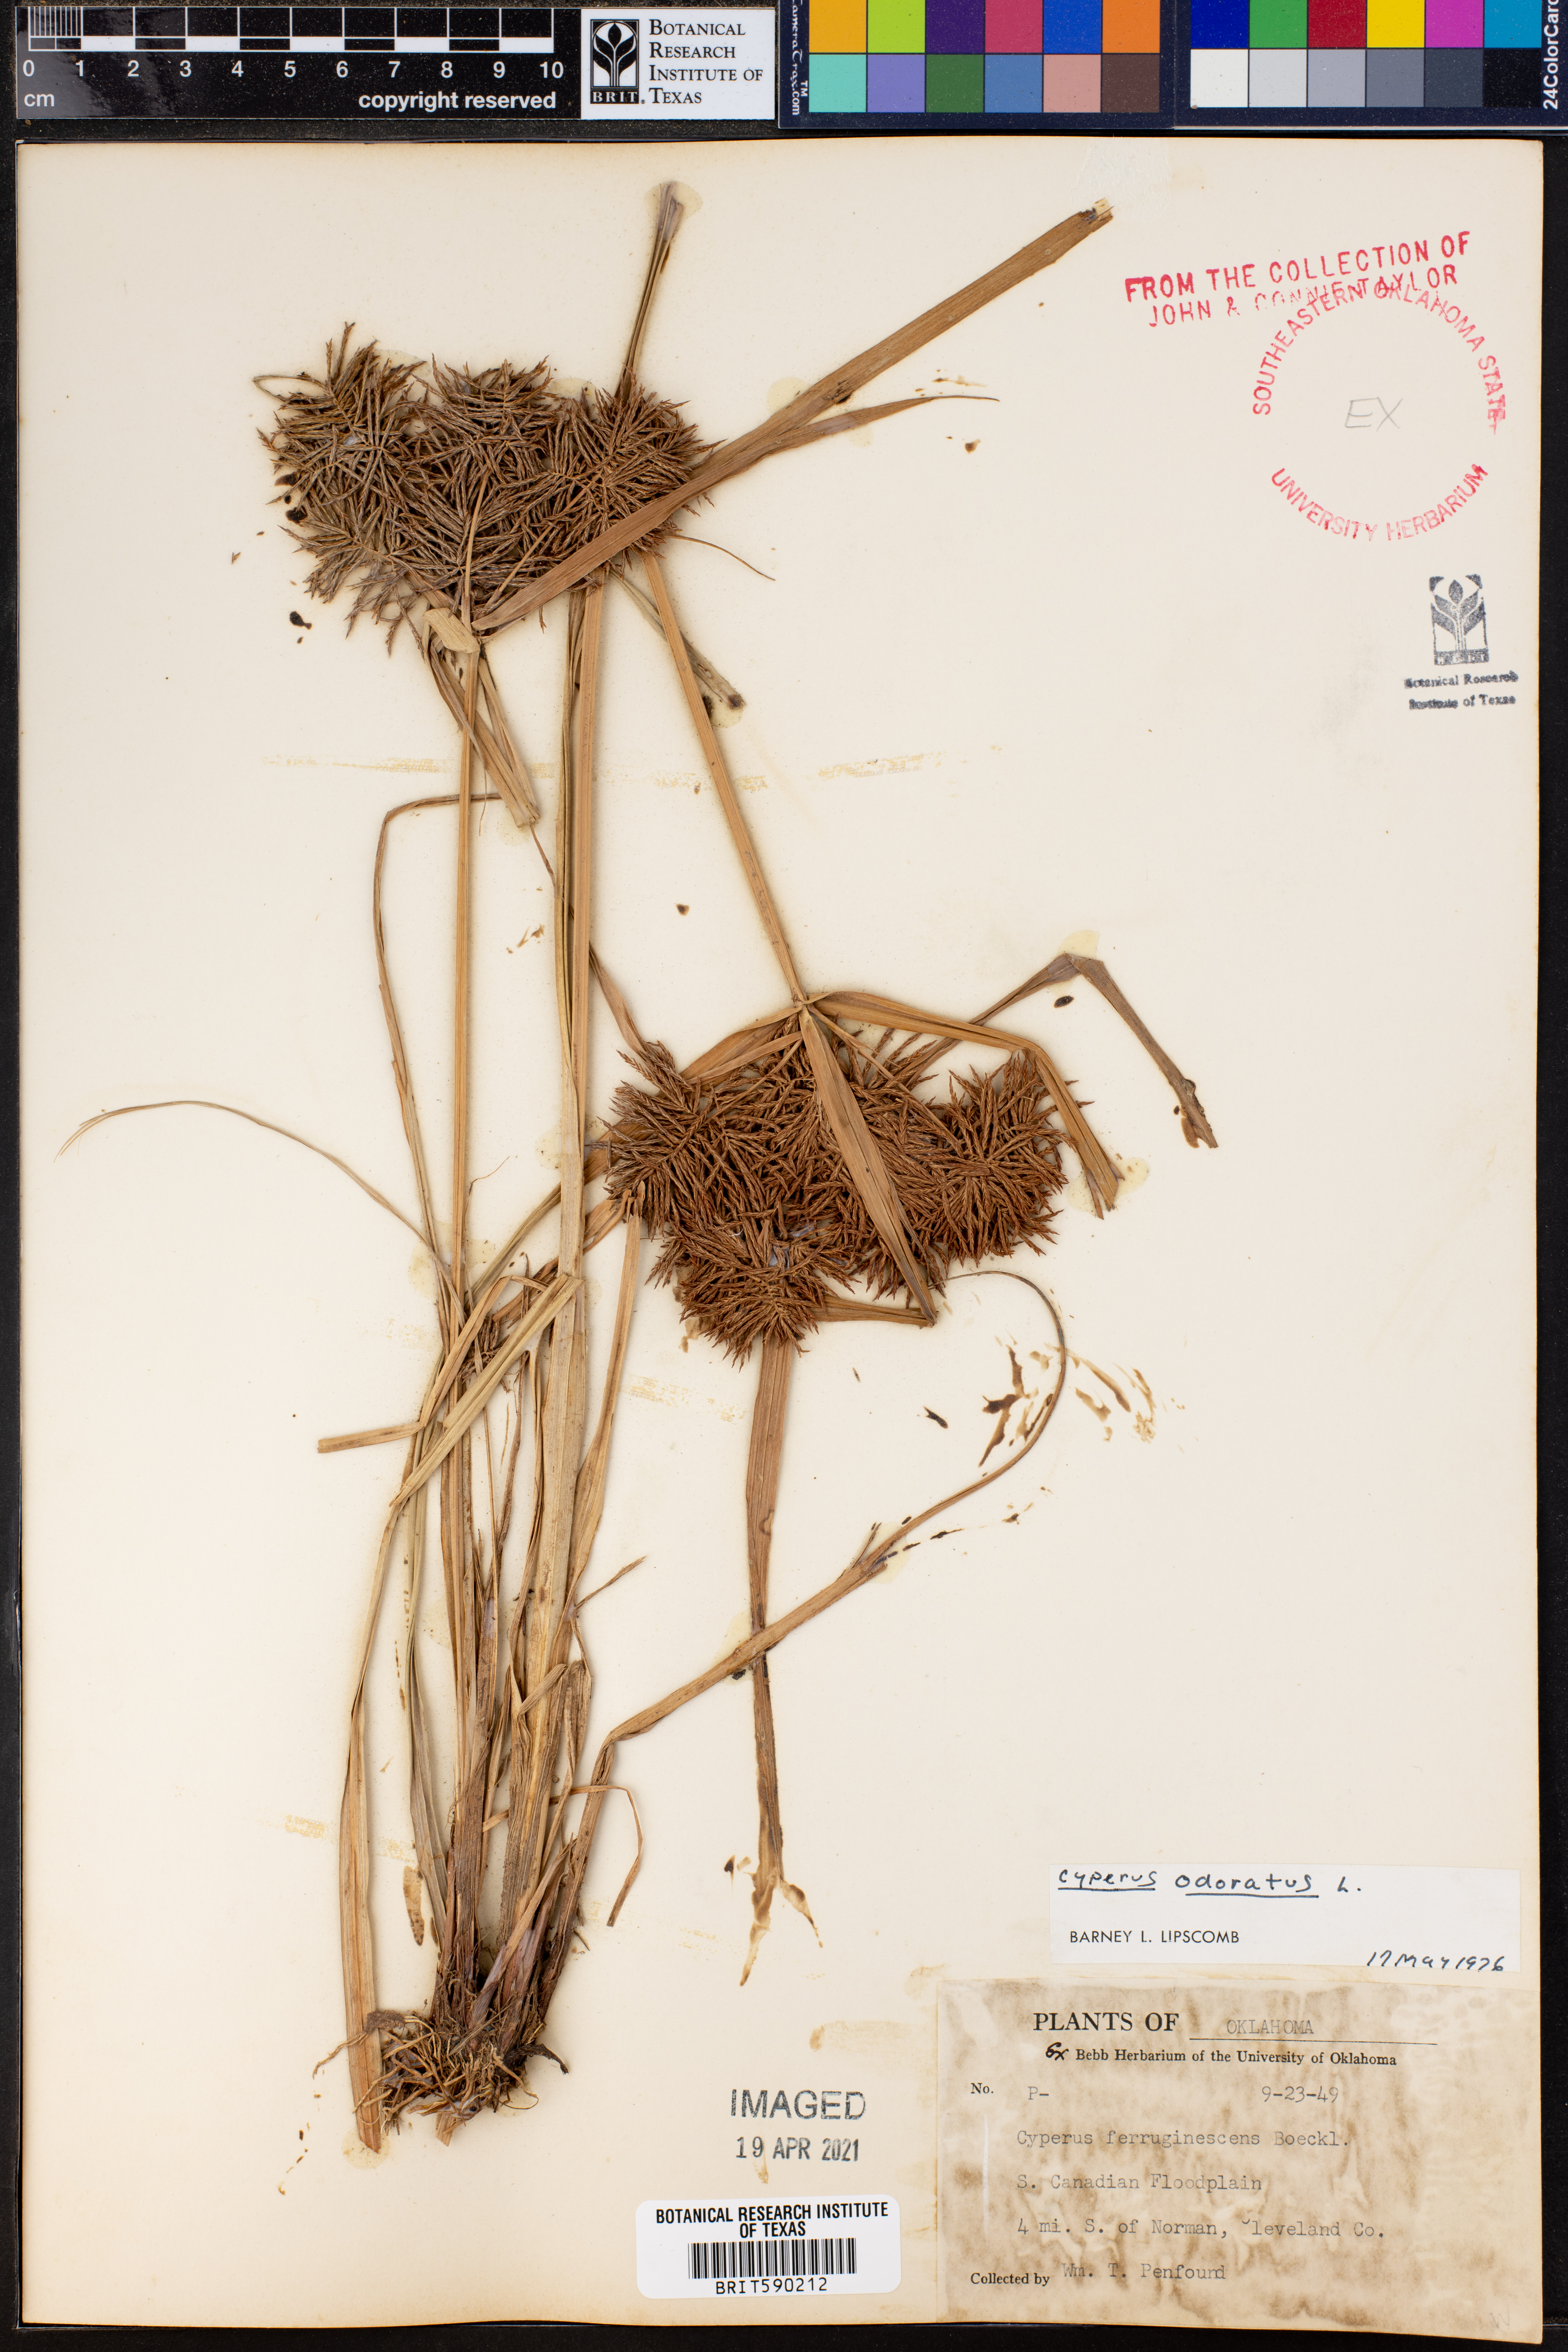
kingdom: Plantae
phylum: Tracheophyta
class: Liliopsida
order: Poales
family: Cyperaceae
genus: Cyperus
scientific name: Cyperus odoratus
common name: Fragrant flatsedge
